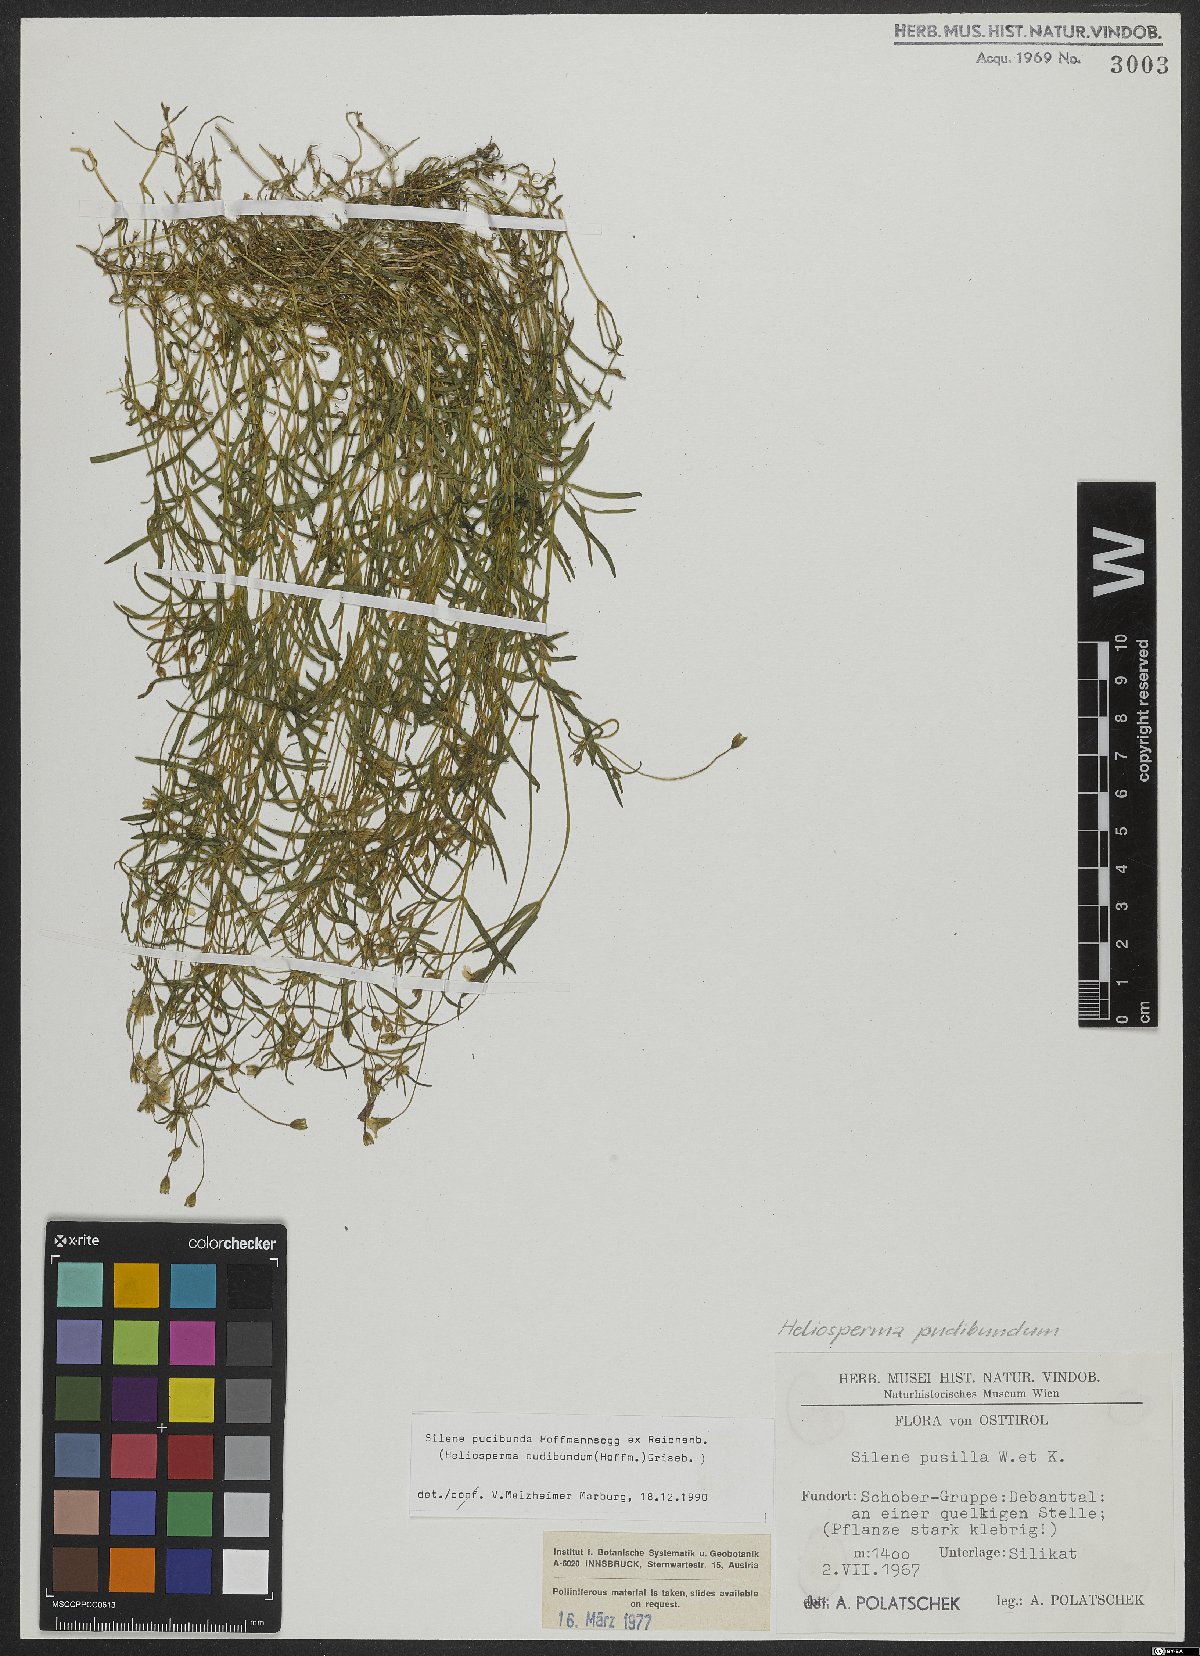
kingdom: Plantae
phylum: Tracheophyta
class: Magnoliopsida
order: Caryophyllales
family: Caryophyllaceae
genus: Heliosperma
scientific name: Heliosperma pudibundum
